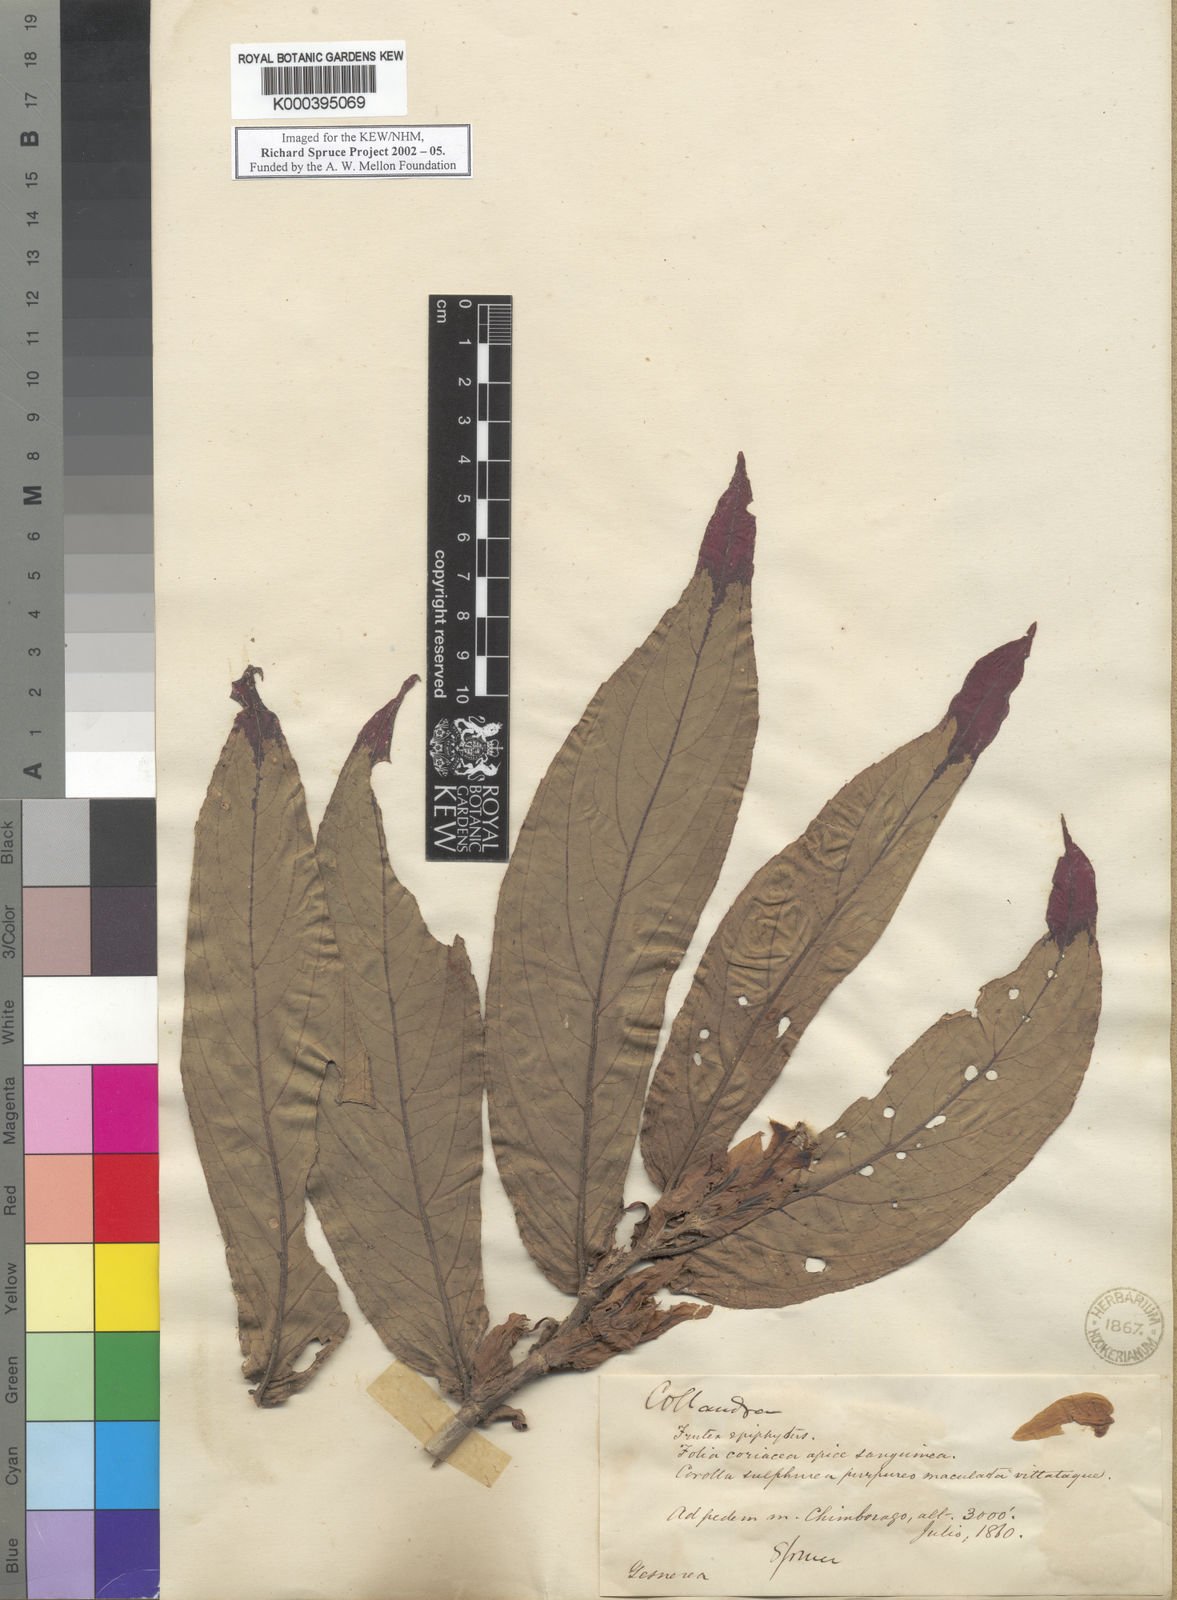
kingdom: Plantae
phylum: Tracheophyta
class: Magnoliopsida
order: Lamiales
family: Gesneriaceae
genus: Columnea
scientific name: Columnea picta
